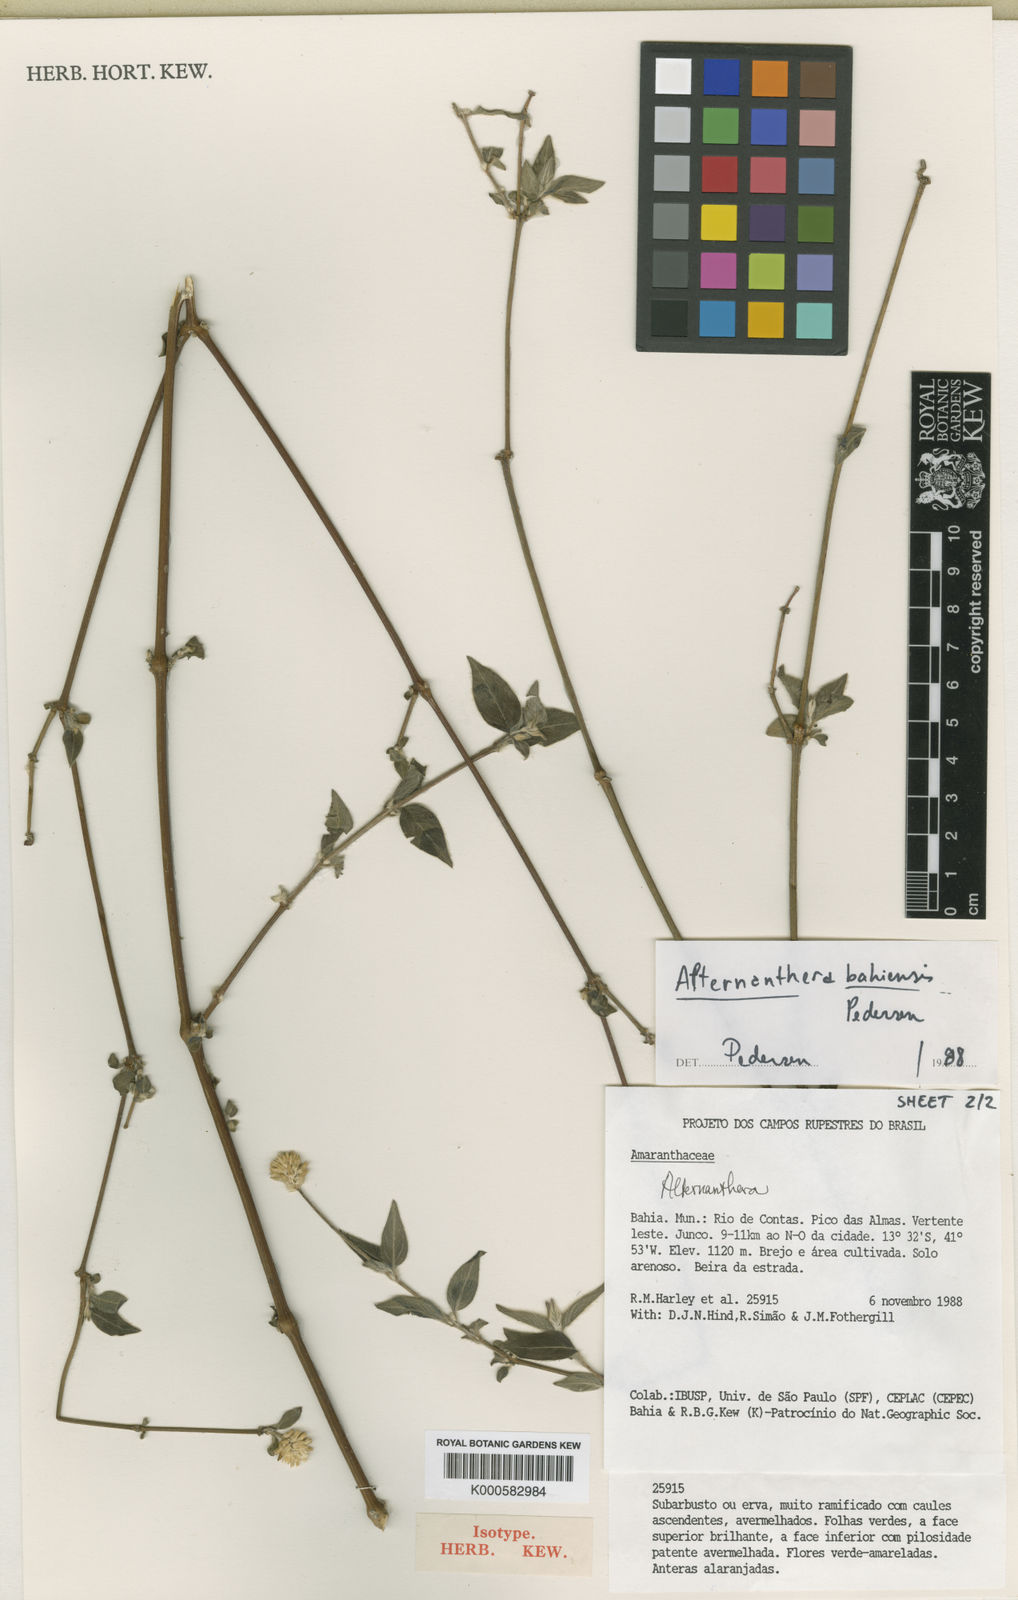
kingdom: Plantae
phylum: Tracheophyta
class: Magnoliopsida
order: Caryophyllales
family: Amaranthaceae
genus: Alternanthera
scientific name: Alternanthera bahiensis
